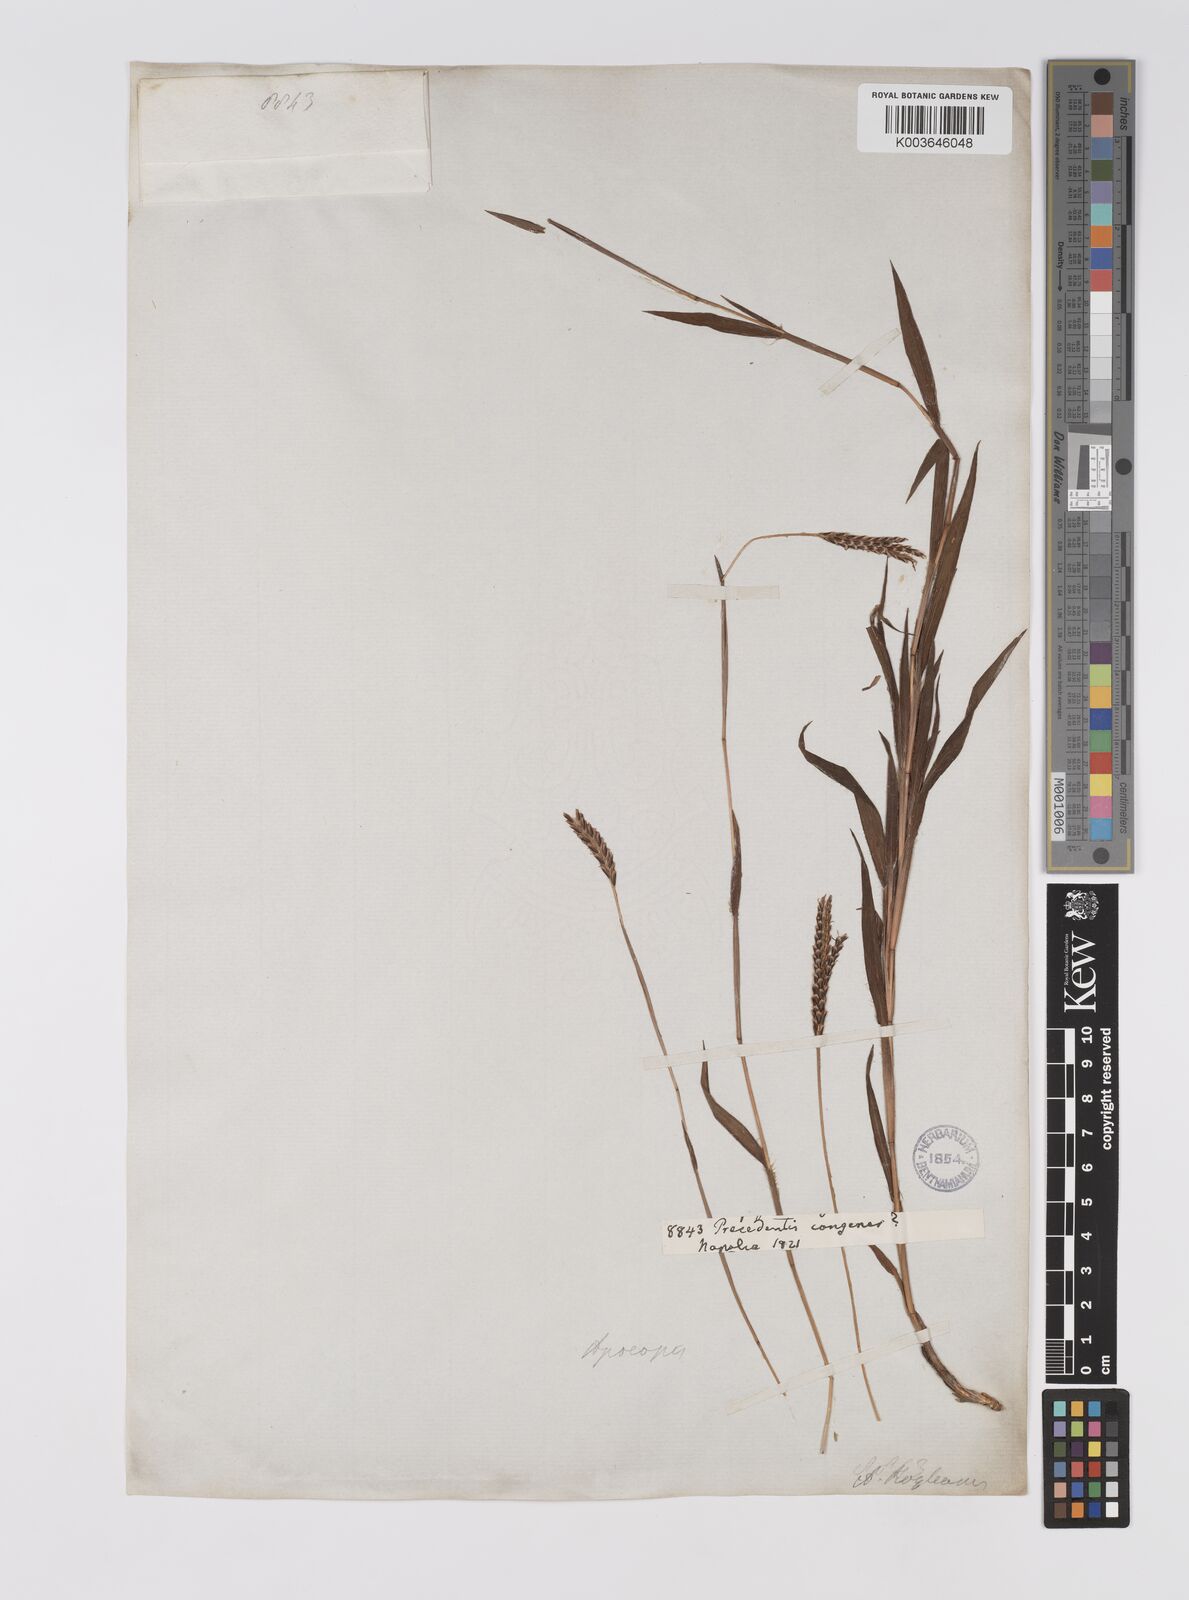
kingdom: Plantae
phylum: Tracheophyta
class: Liliopsida
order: Poales
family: Poaceae
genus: Apocopis
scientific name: Apocopis paleaceus
